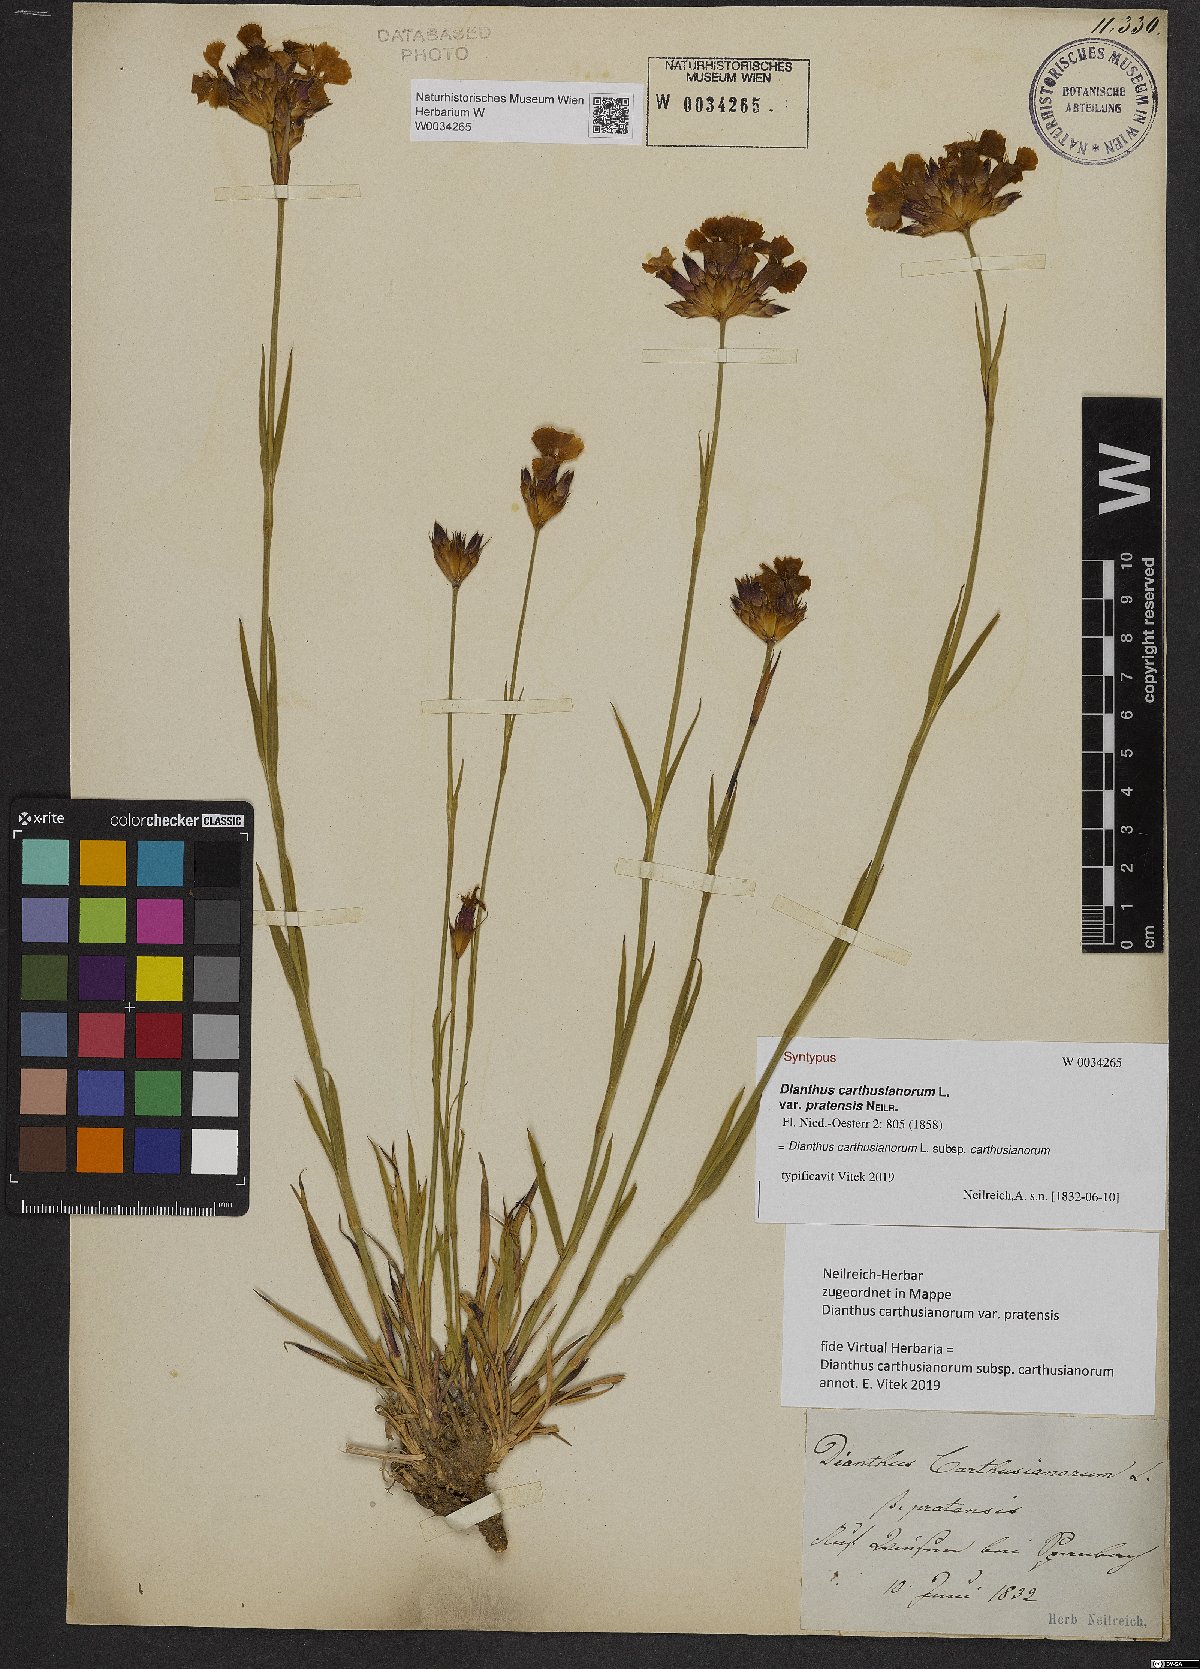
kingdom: Plantae
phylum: Tracheophyta
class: Magnoliopsida
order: Caryophyllales
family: Caryophyllaceae
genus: Dianthus
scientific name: Dianthus carthusianorum
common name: Carthusian pink
